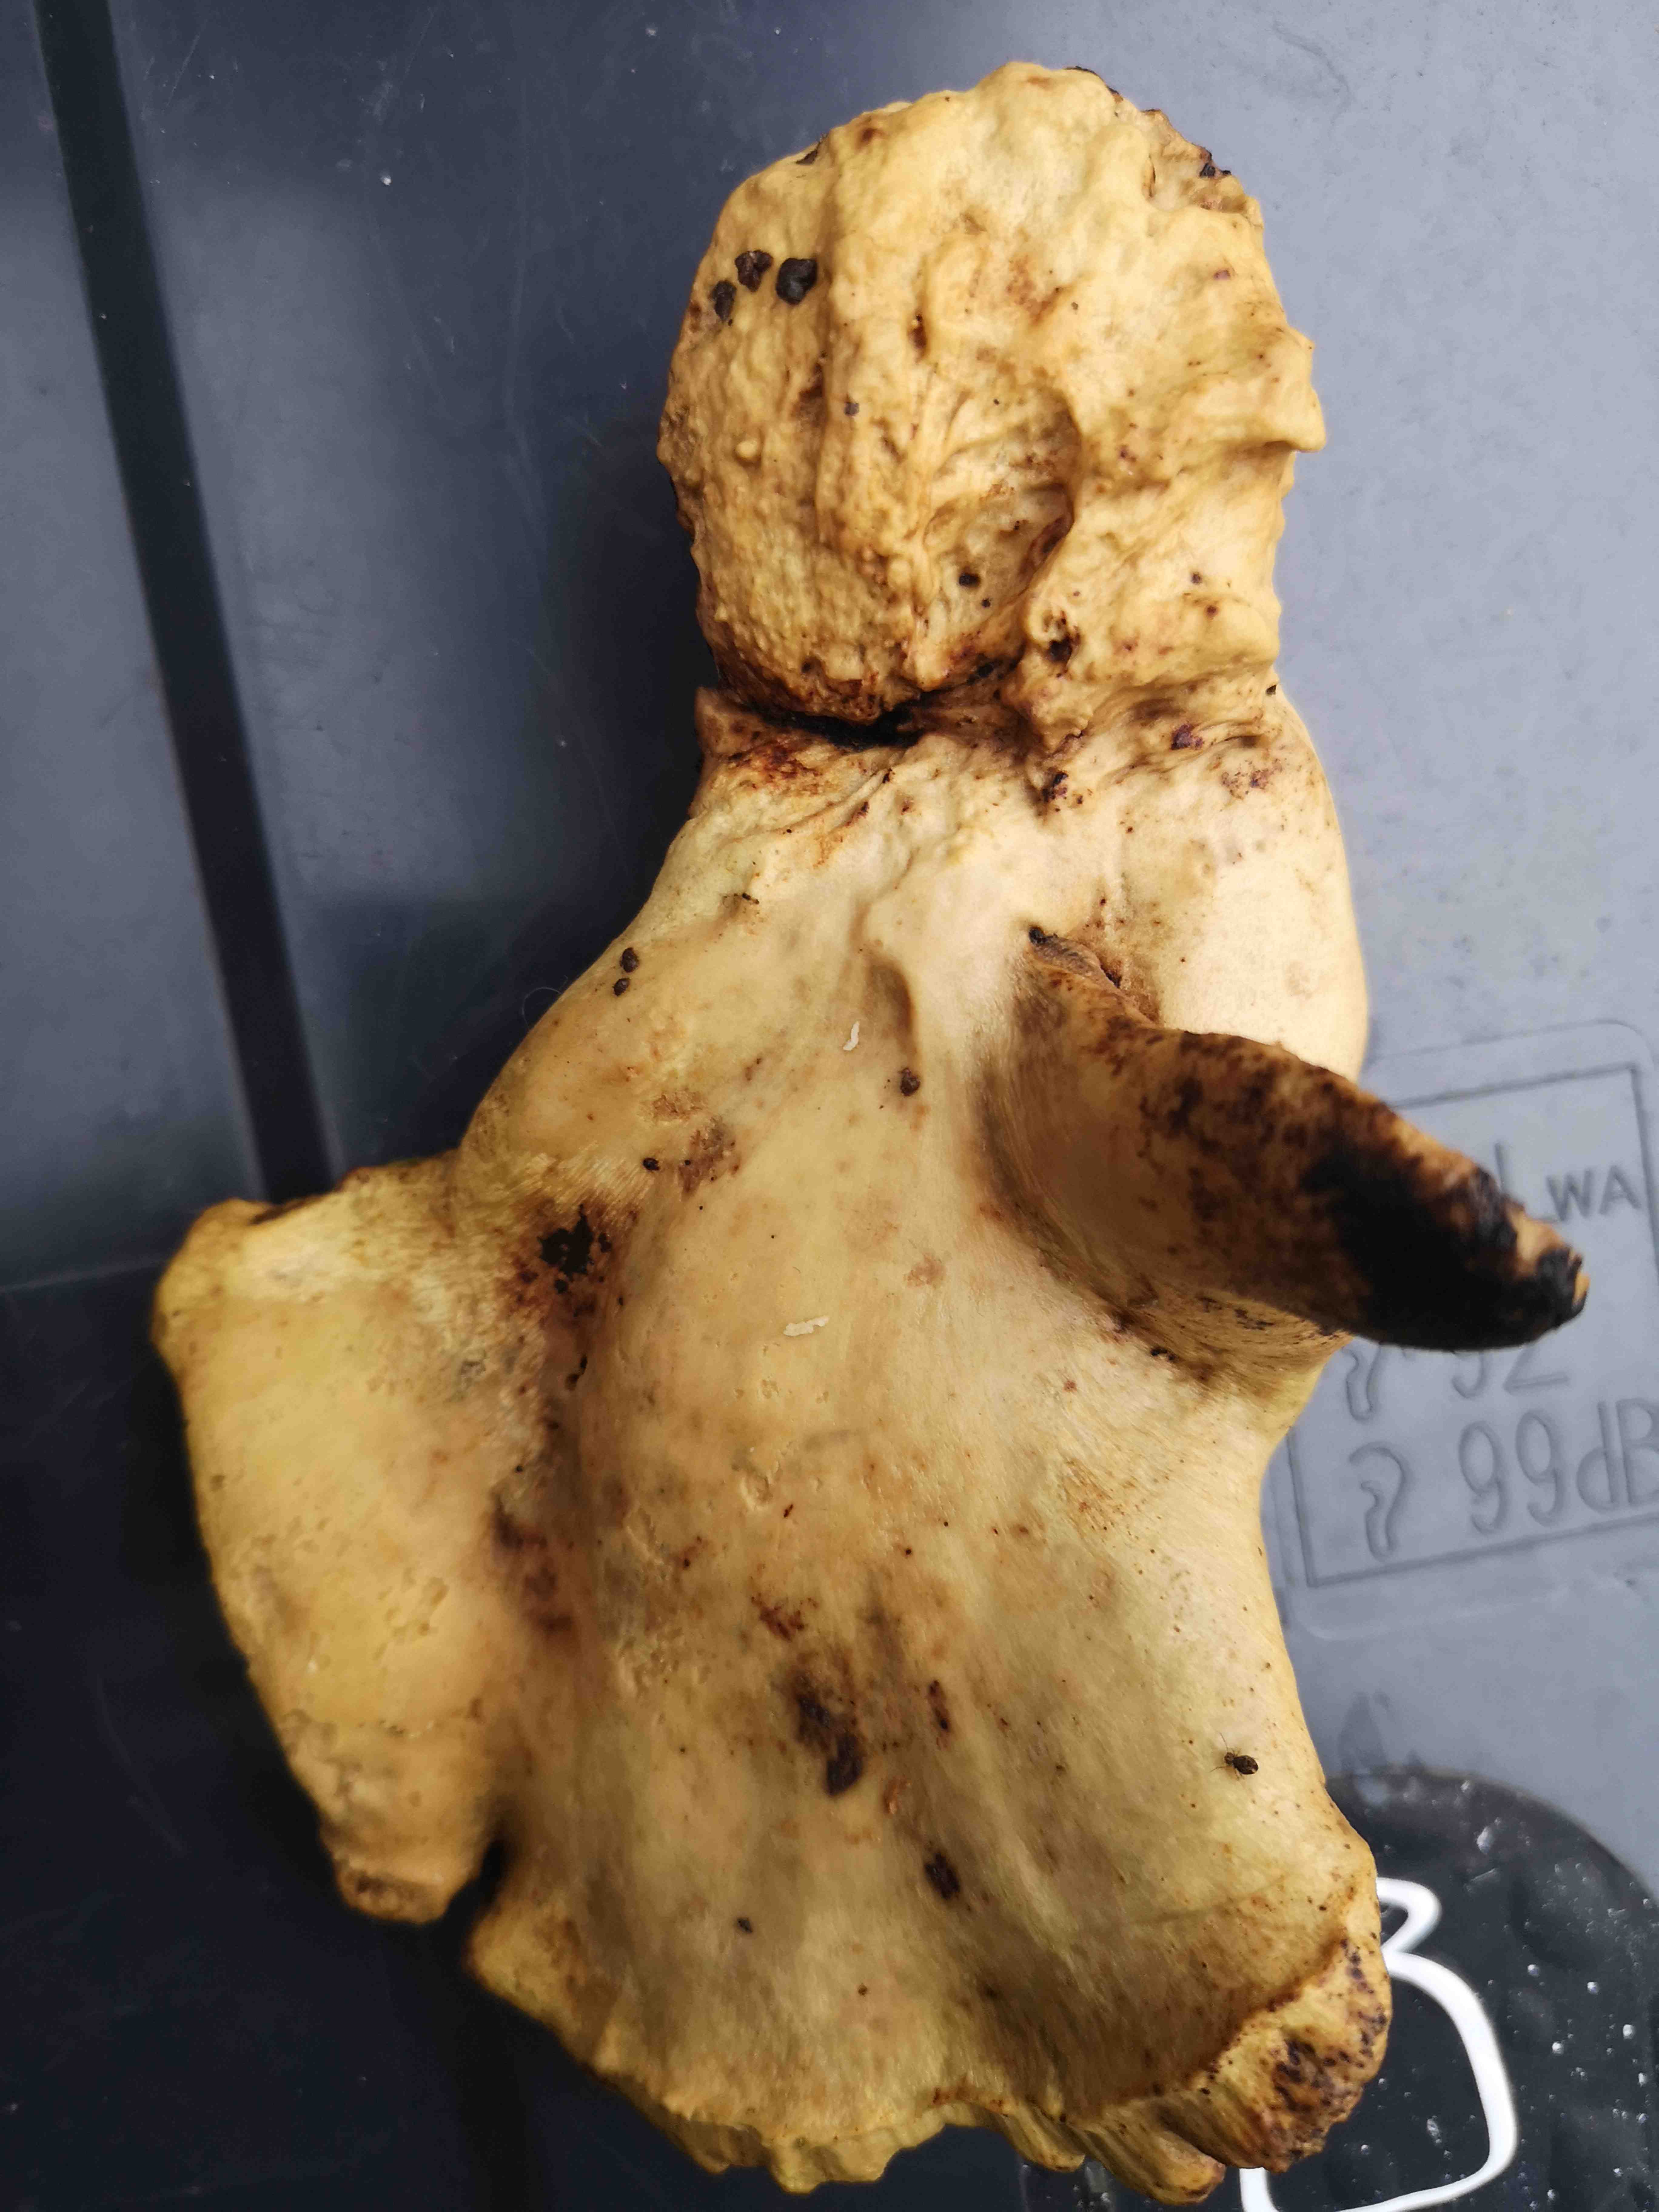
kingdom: Fungi
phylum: Basidiomycota
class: Agaricomycetes
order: Polyporales
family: Polyporaceae
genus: Cerioporus
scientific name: Cerioporus varius
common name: foranderlig stilkporesvamp
